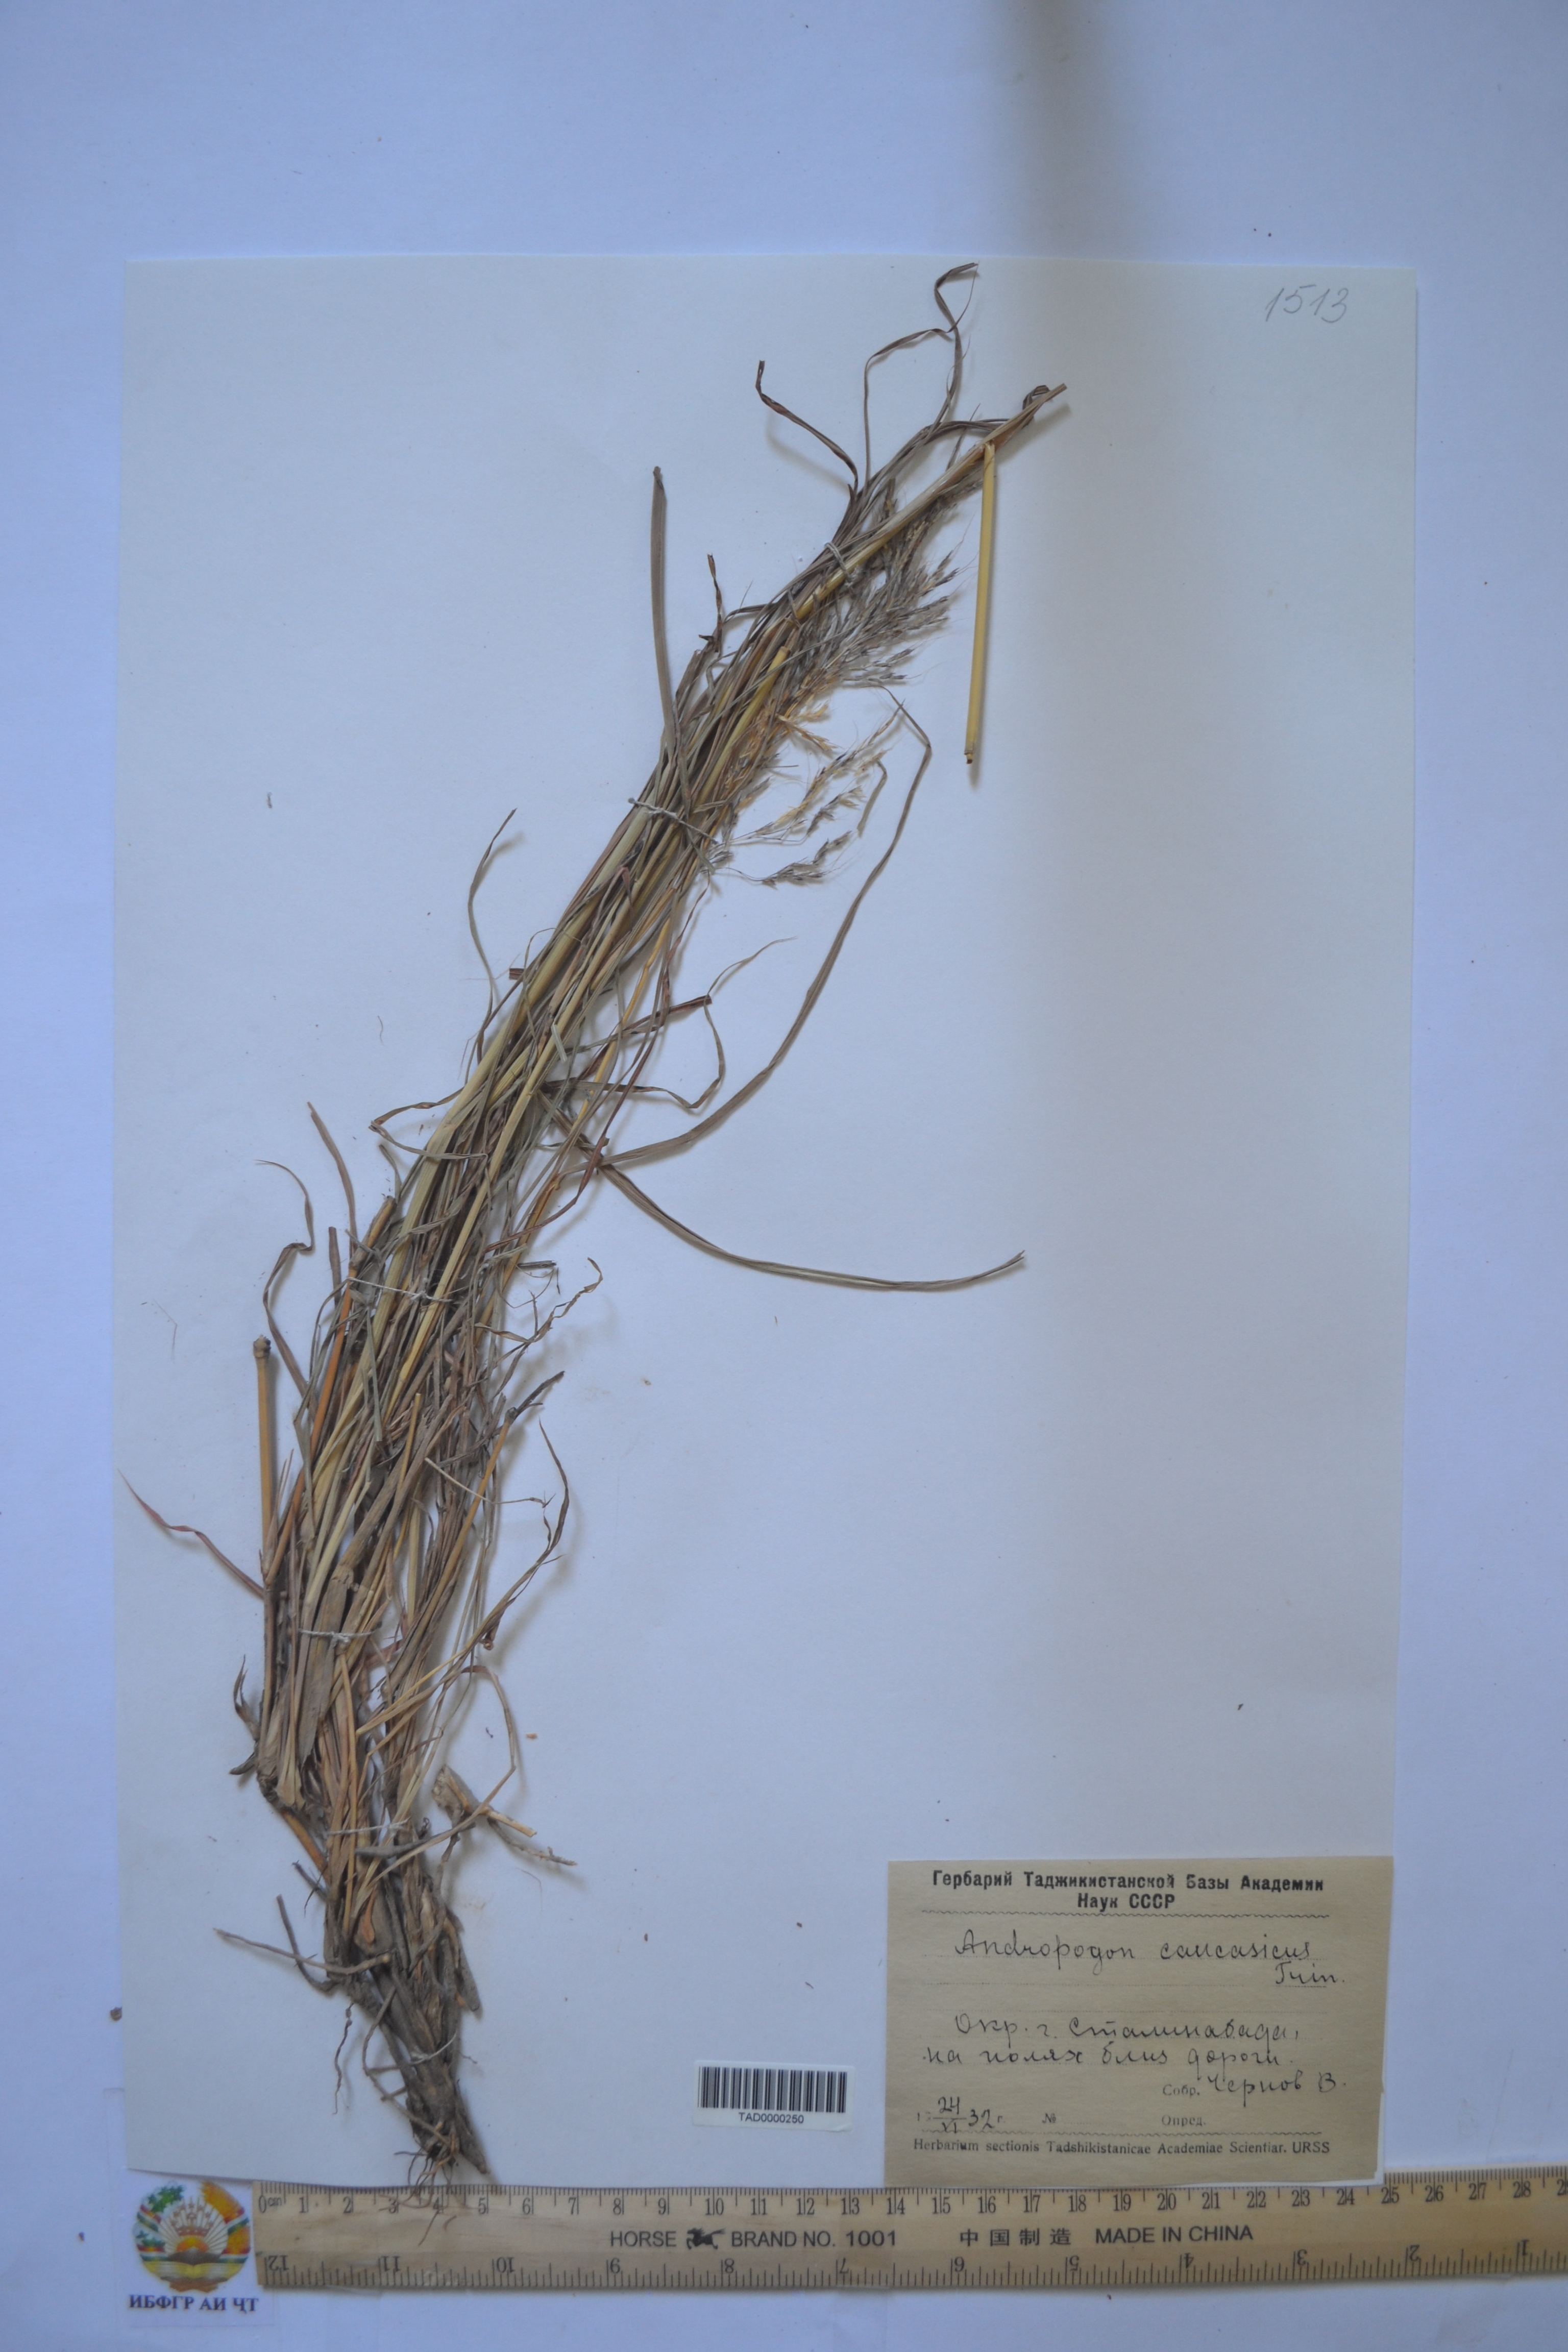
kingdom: Plantae
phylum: Tracheophyta
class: Liliopsida
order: Poales
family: Poaceae
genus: Bothriochloa
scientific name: Bothriochloa bladhii
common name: Caucasian bluestem
